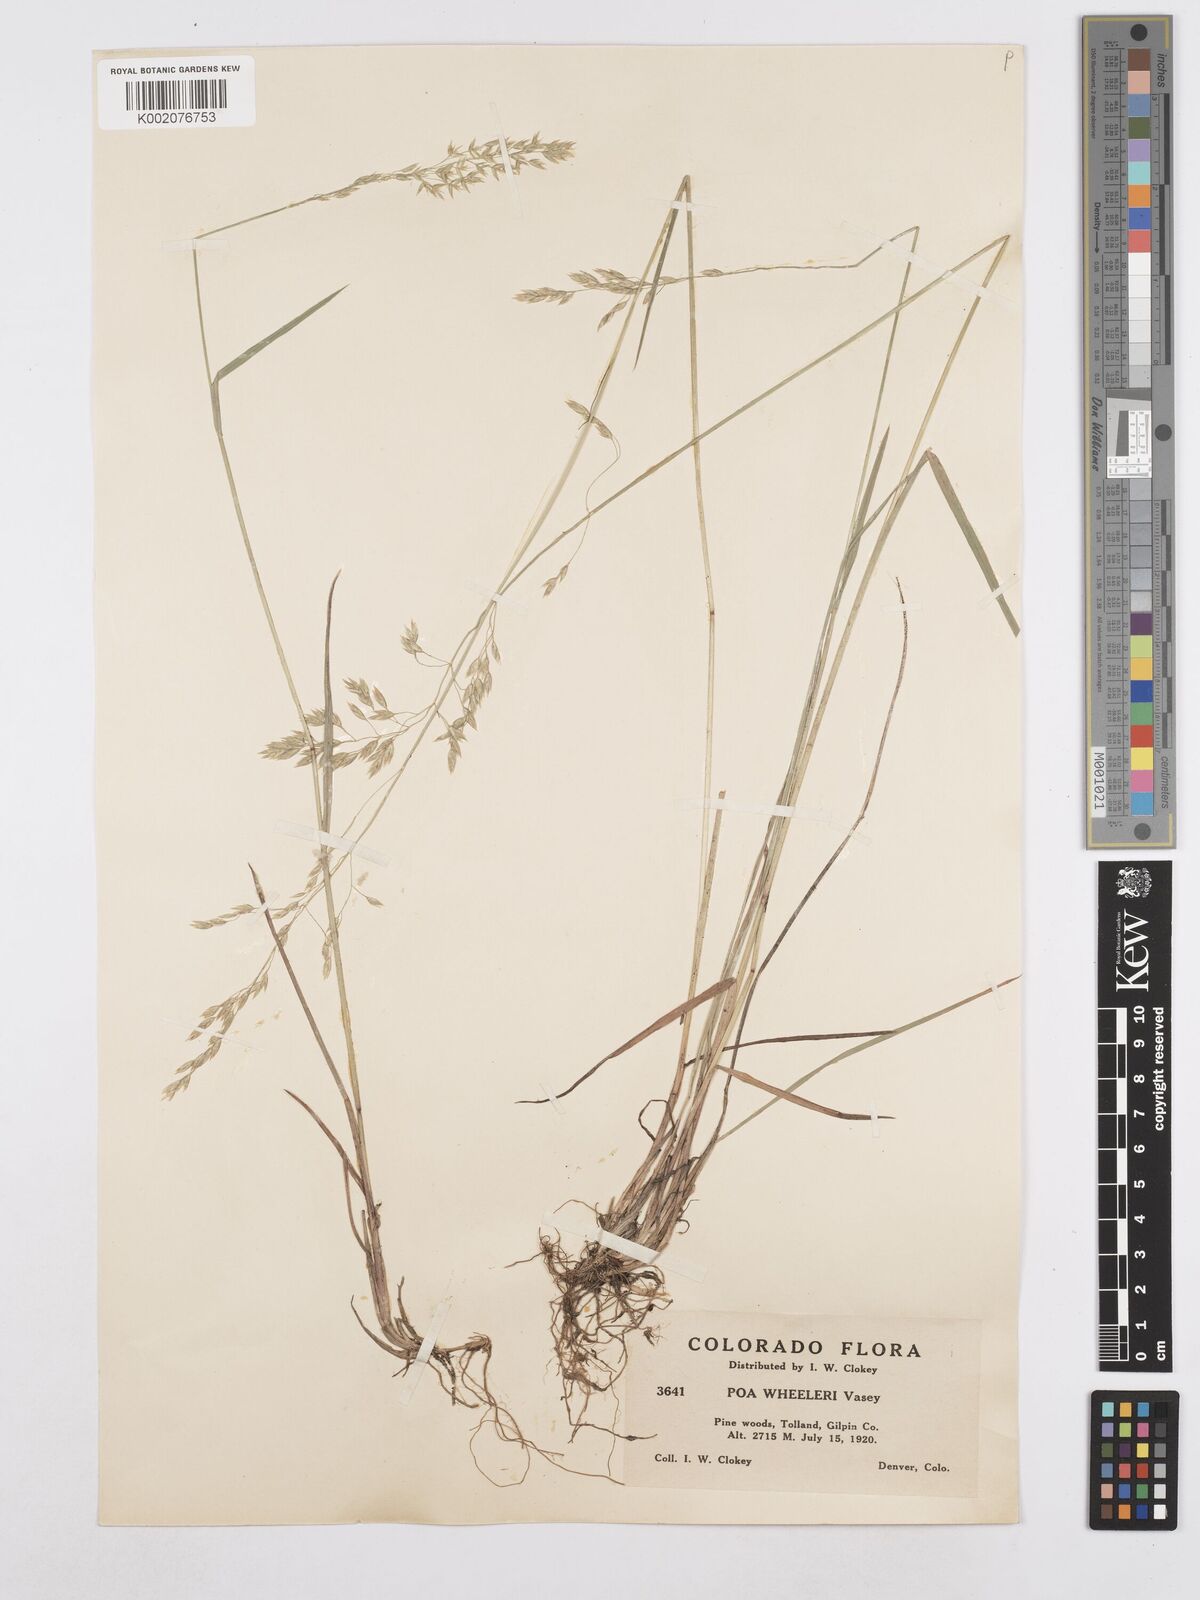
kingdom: Plantae
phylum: Tracheophyta
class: Liliopsida
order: Poales
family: Poaceae
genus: Poa
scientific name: Poa wheeleri
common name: Wheeler's bluegrass
